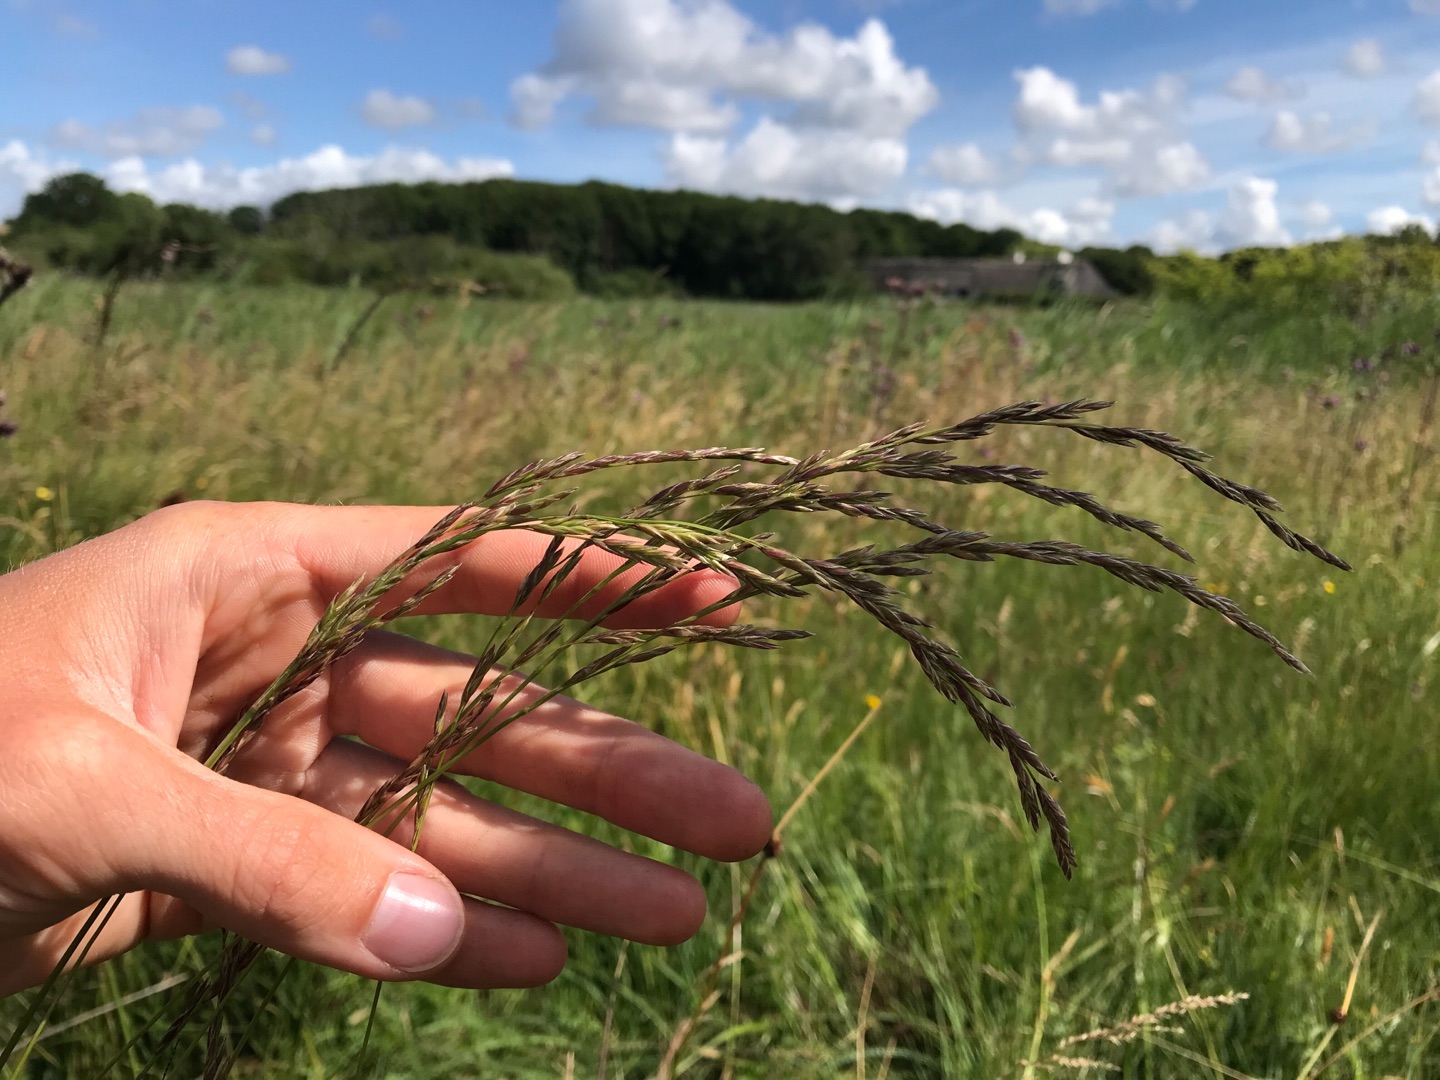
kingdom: Plantae
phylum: Tracheophyta
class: Liliopsida
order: Poales
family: Poaceae
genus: Lolium
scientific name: Lolium pratense
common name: Eng-svingel
